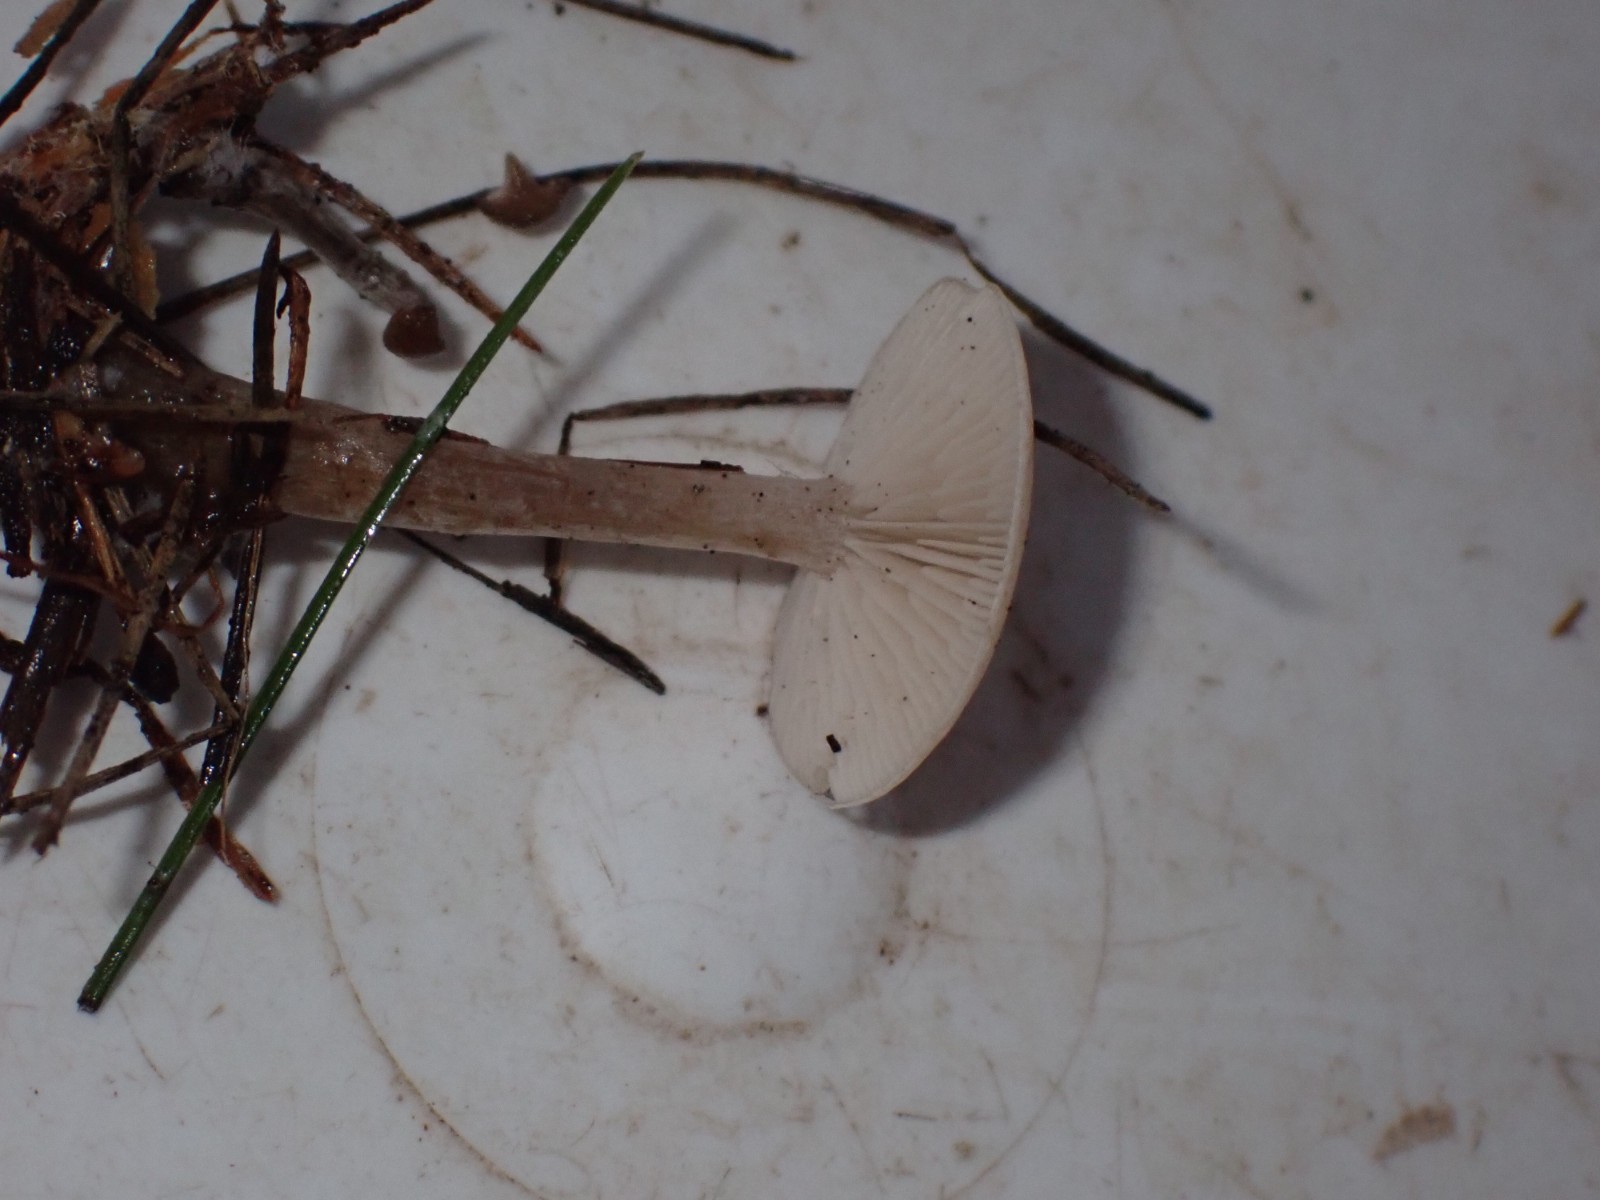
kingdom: Fungi
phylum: Basidiomycota
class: Agaricomycetes
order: Agaricales
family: Tricholomataceae
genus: Clitocybe
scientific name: Clitocybe fragrans
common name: vellugtende tragthat
